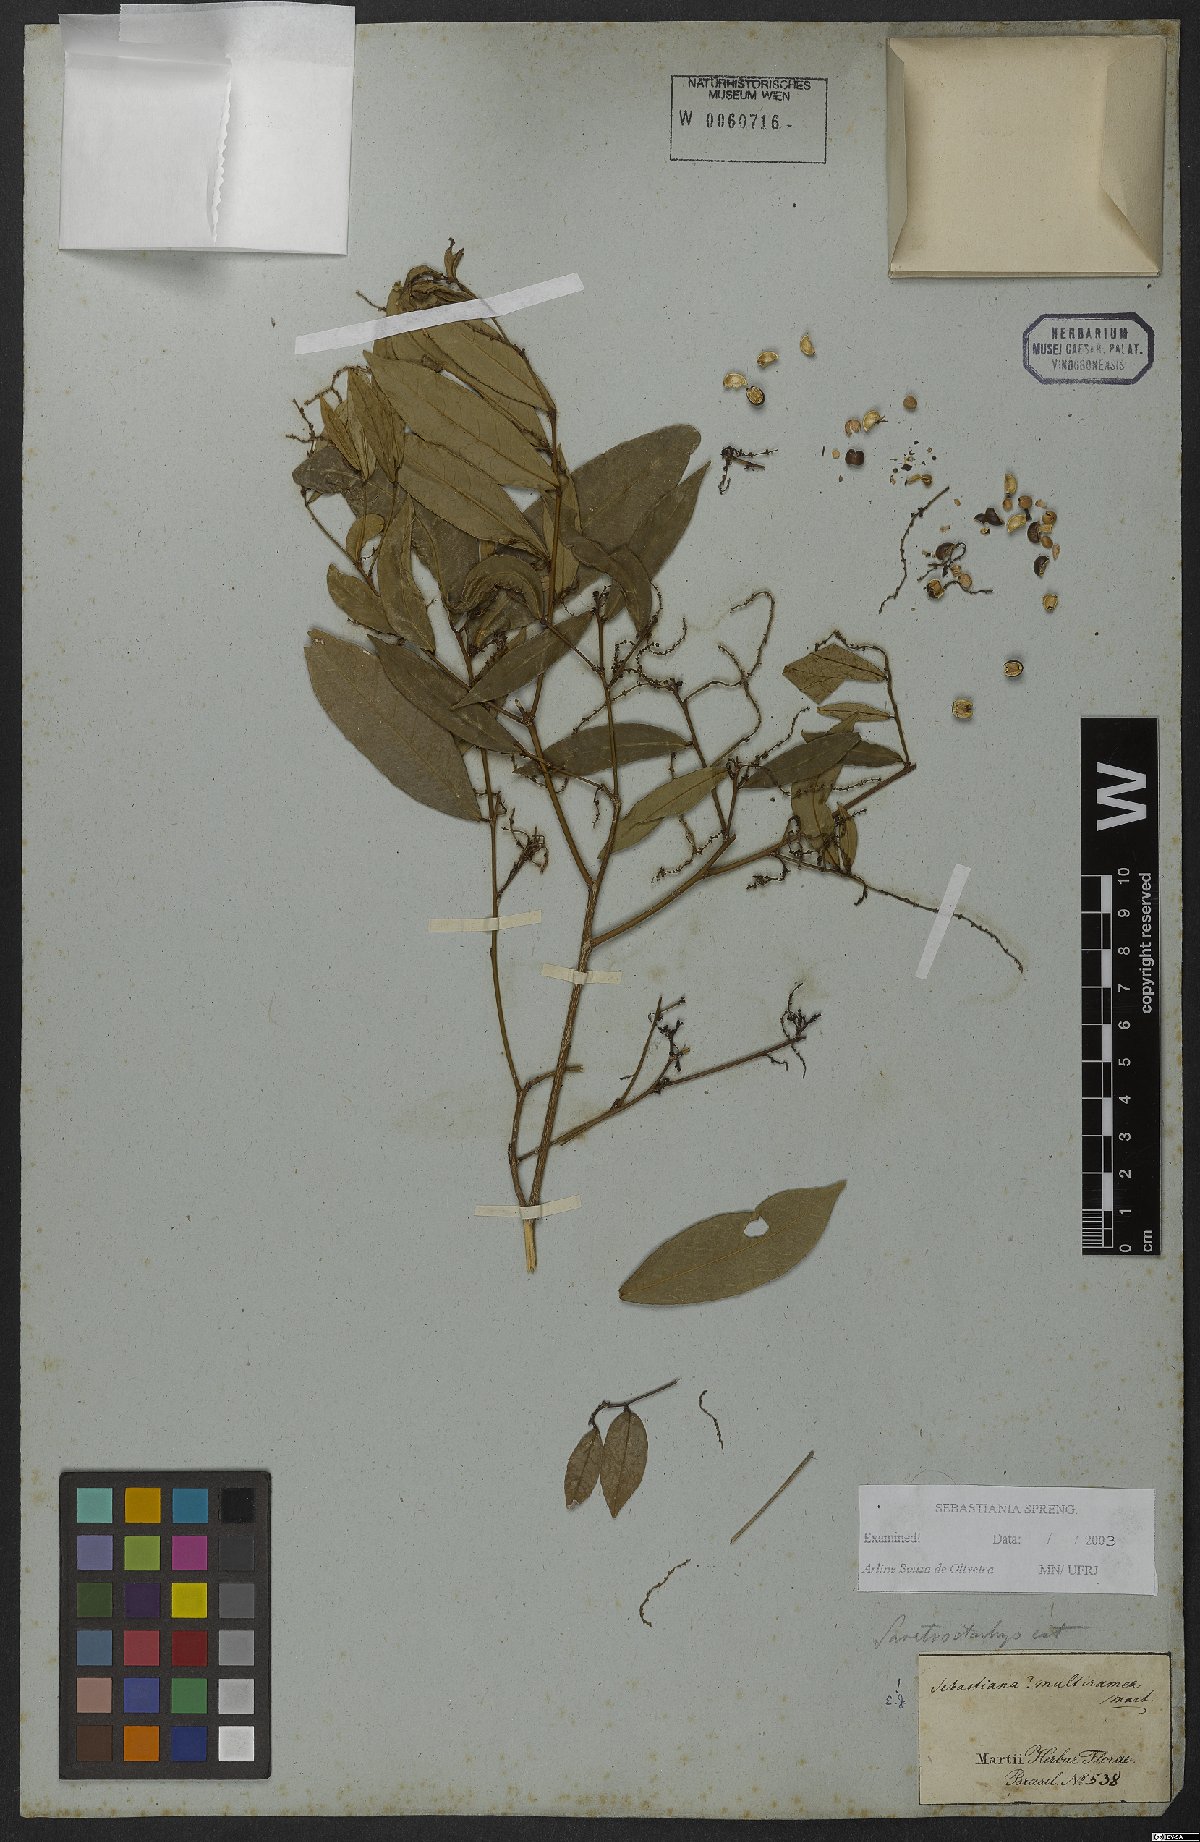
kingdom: Plantae
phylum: Tracheophyta
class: Magnoliopsida
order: Malpighiales
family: Euphorbiaceae
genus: Gymnanthes
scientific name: Gymnanthes glabrata
